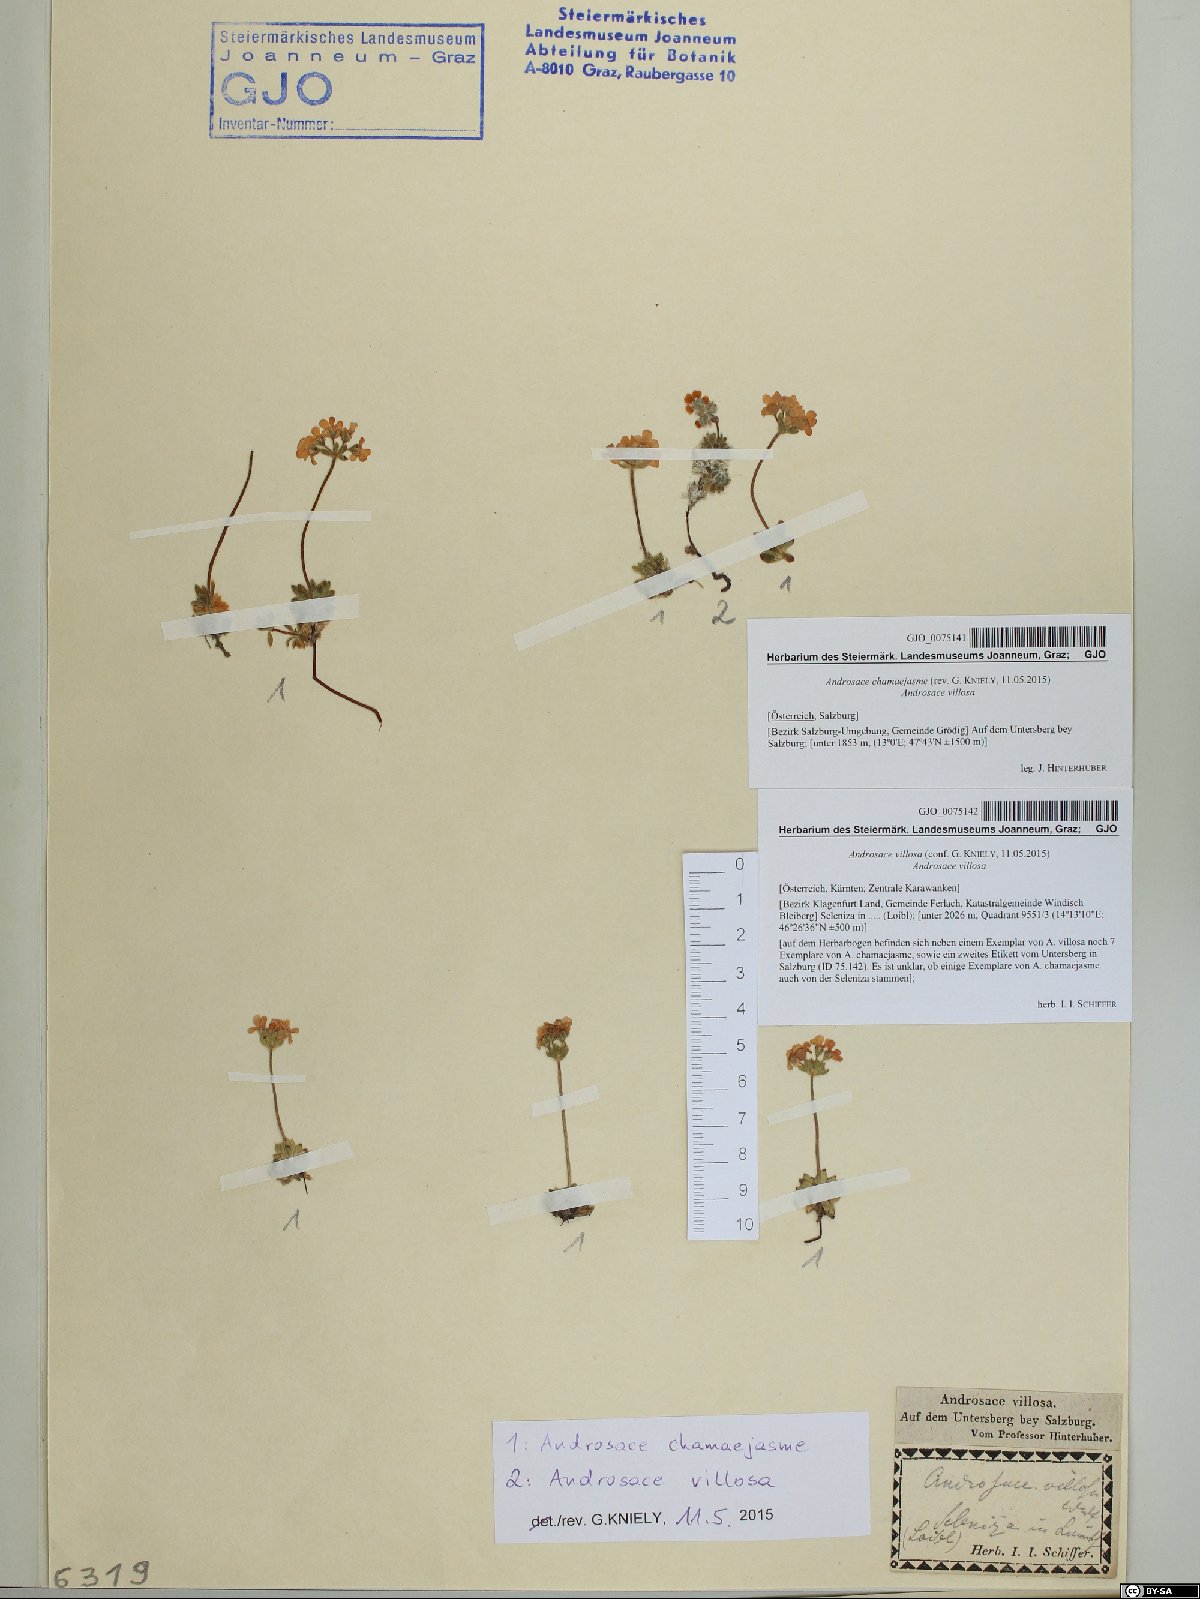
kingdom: Plantae
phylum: Tracheophyta
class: Magnoliopsida
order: Ericales
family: Primulaceae
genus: Androsace
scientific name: Androsace villosa
